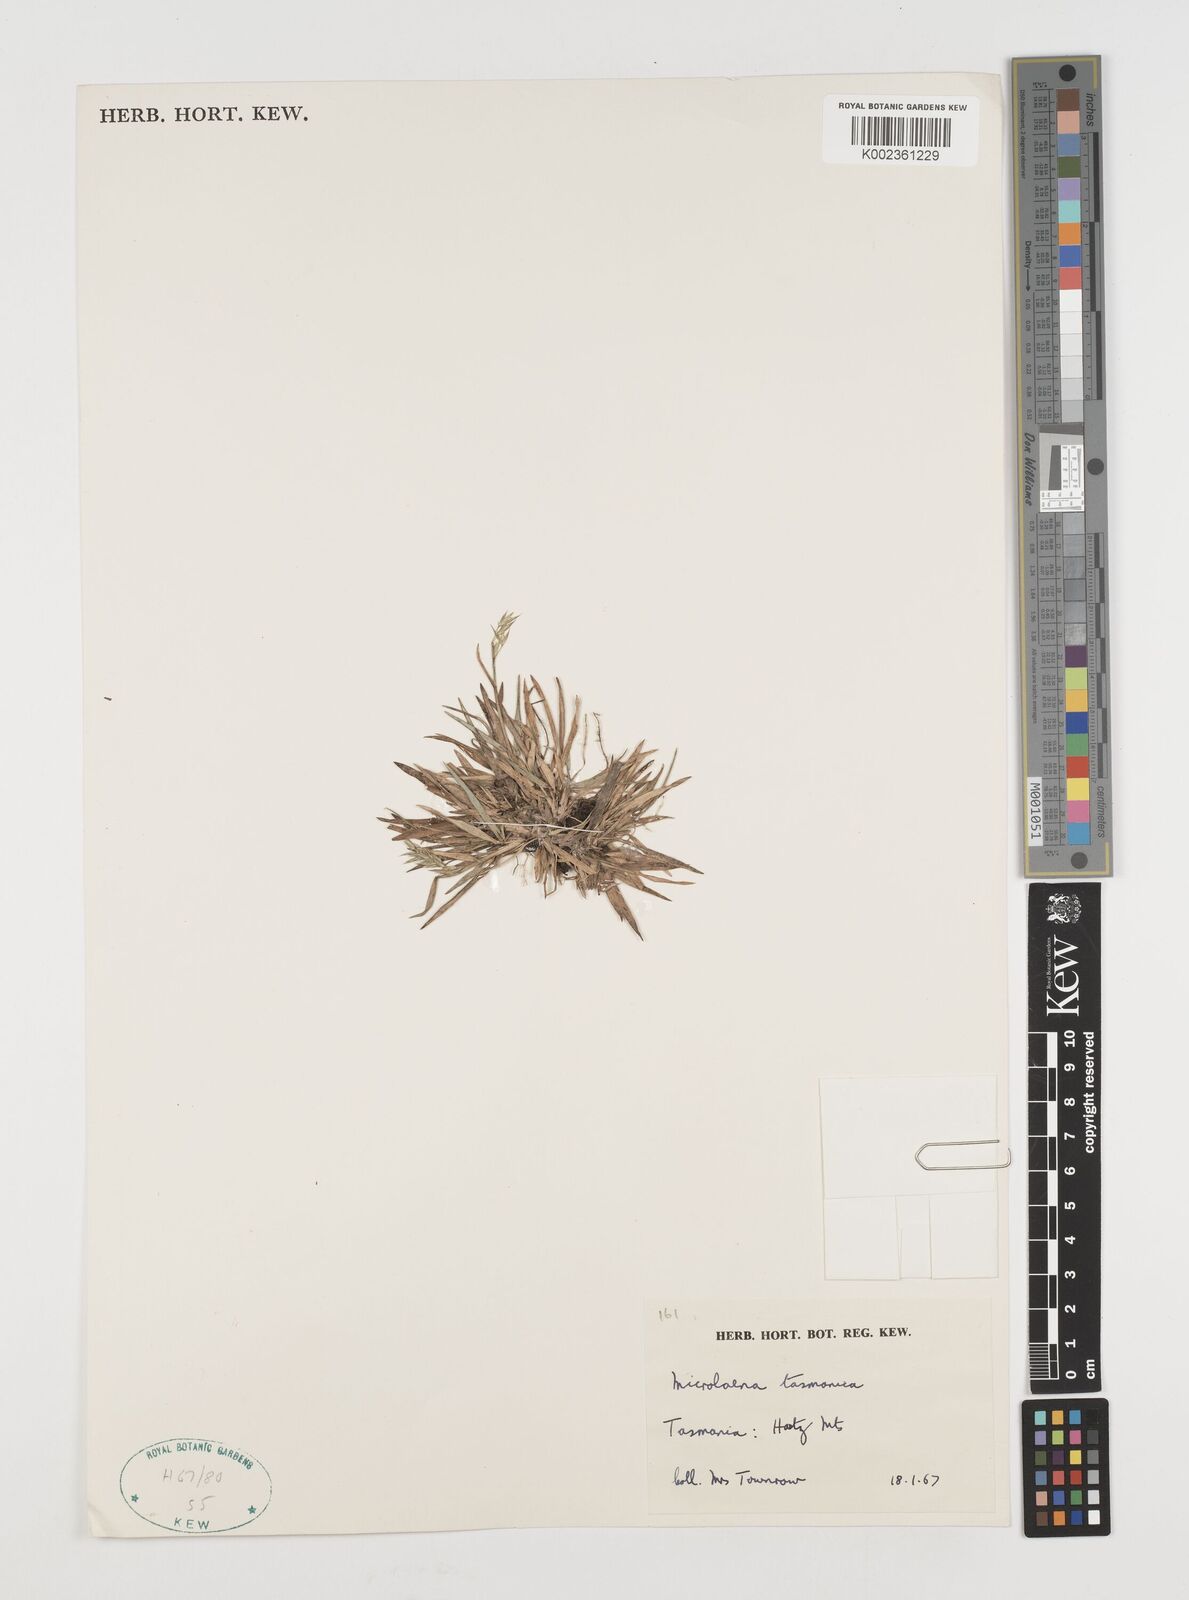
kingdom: Plantae
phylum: Tracheophyta
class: Liliopsida
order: Poales
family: Poaceae
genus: Microlaena
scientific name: Microlaena tasmanica
